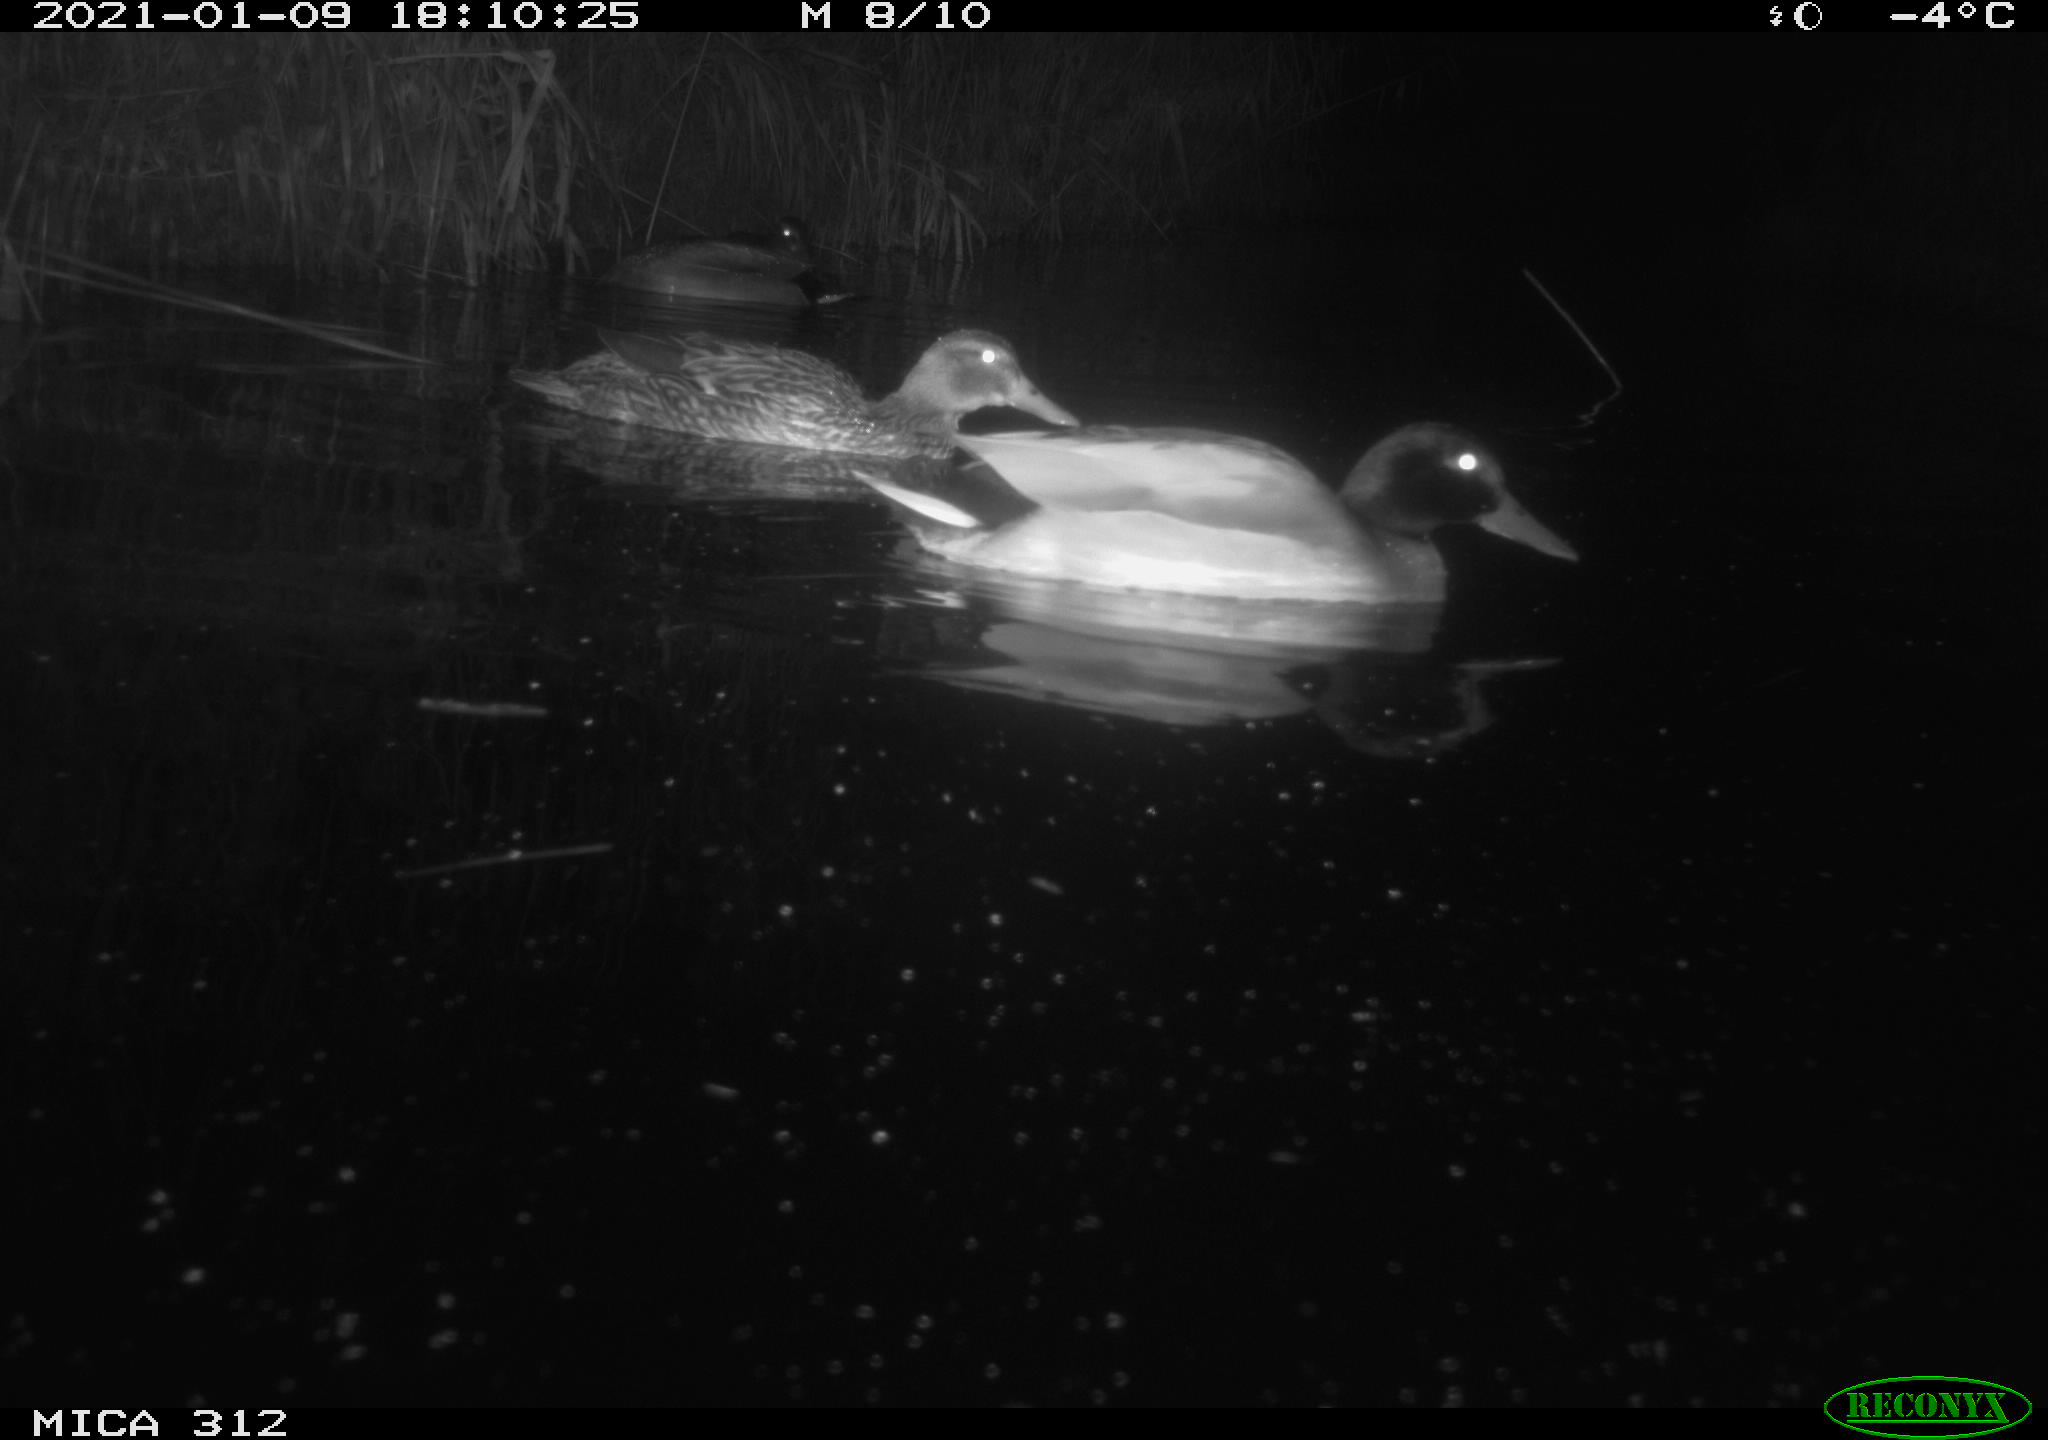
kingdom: Animalia
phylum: Chordata
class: Aves
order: Anseriformes
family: Anatidae
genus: Anas
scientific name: Anas platyrhynchos
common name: Mallard
